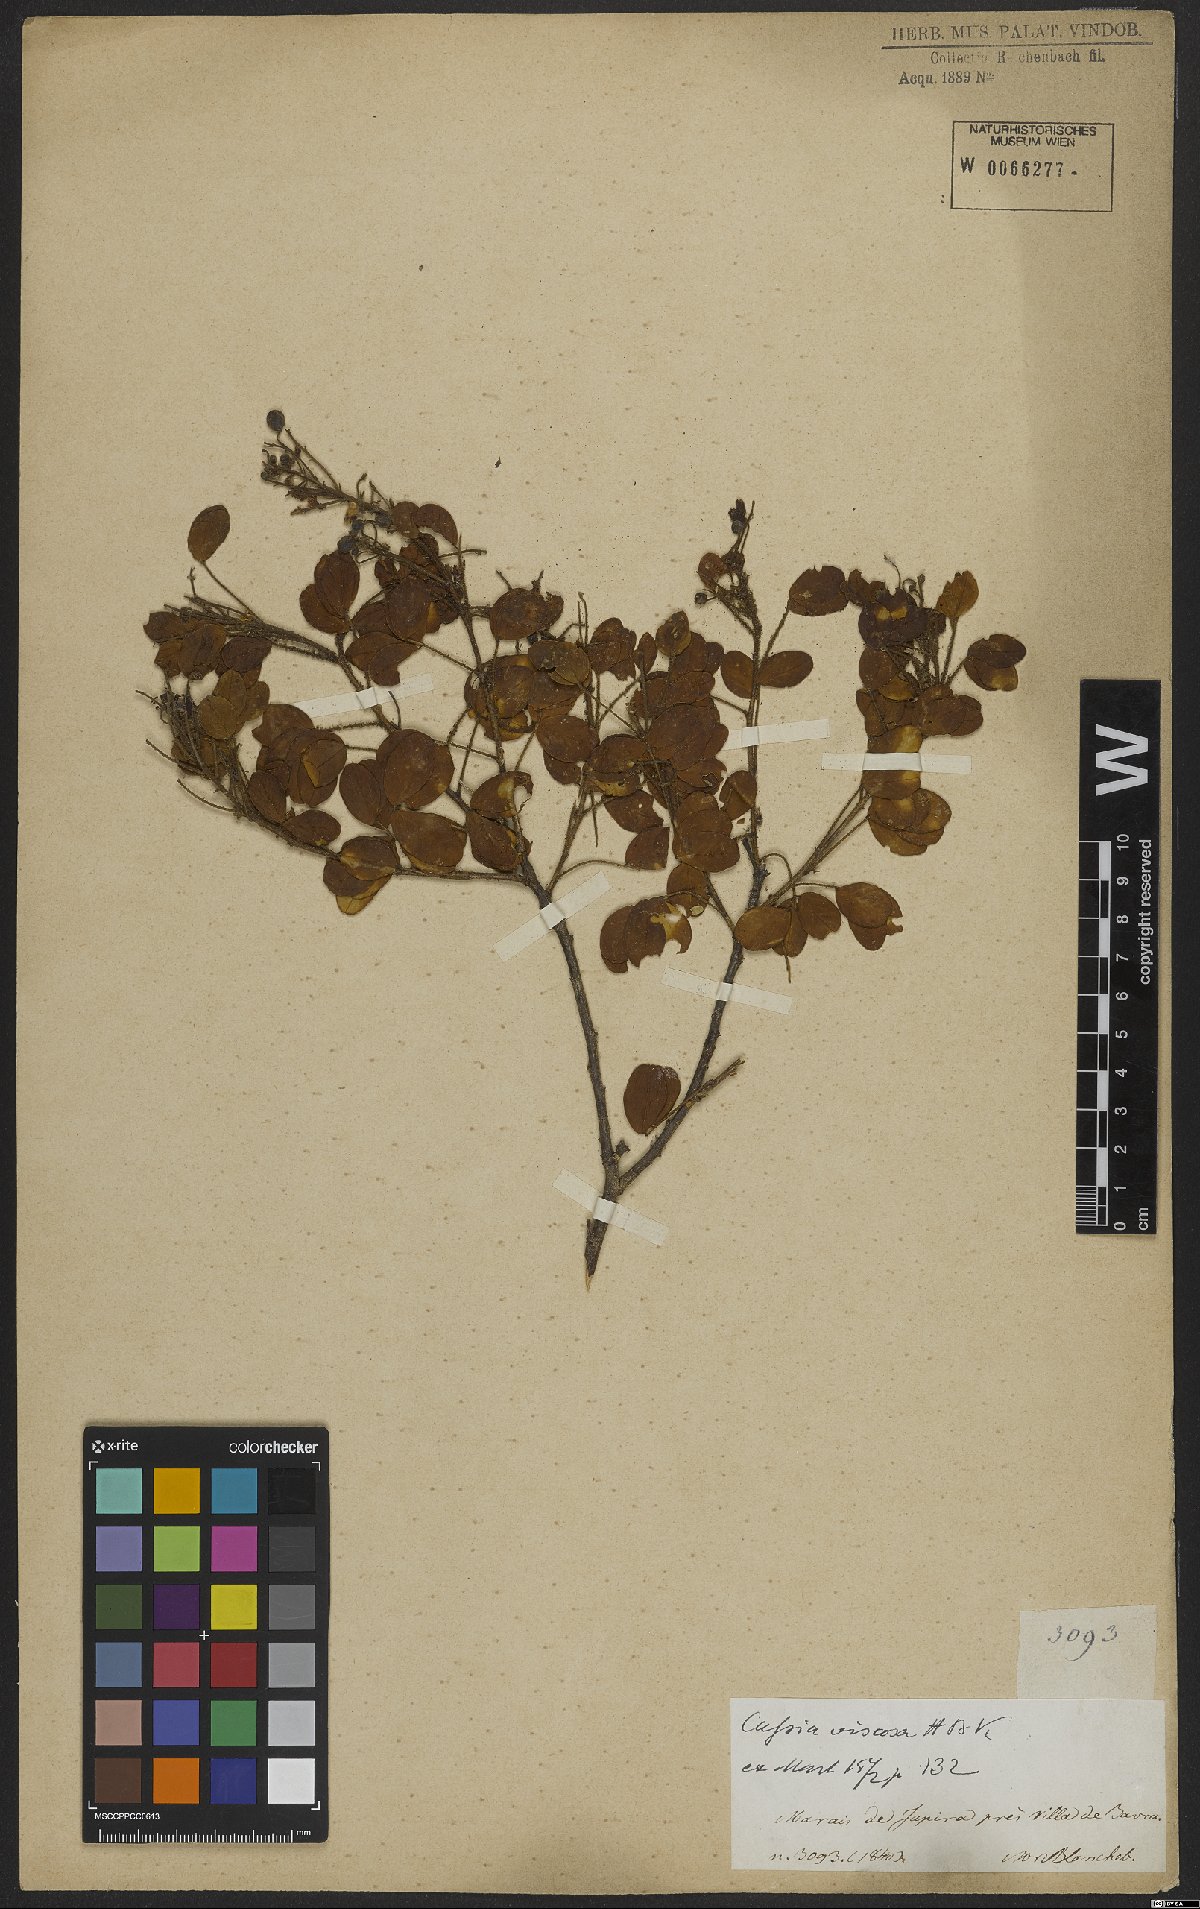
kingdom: Plantae
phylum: Tracheophyta
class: Magnoliopsida
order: Fabales
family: Fabaceae
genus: Chamaecrista
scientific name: Chamaecrista viscosa
